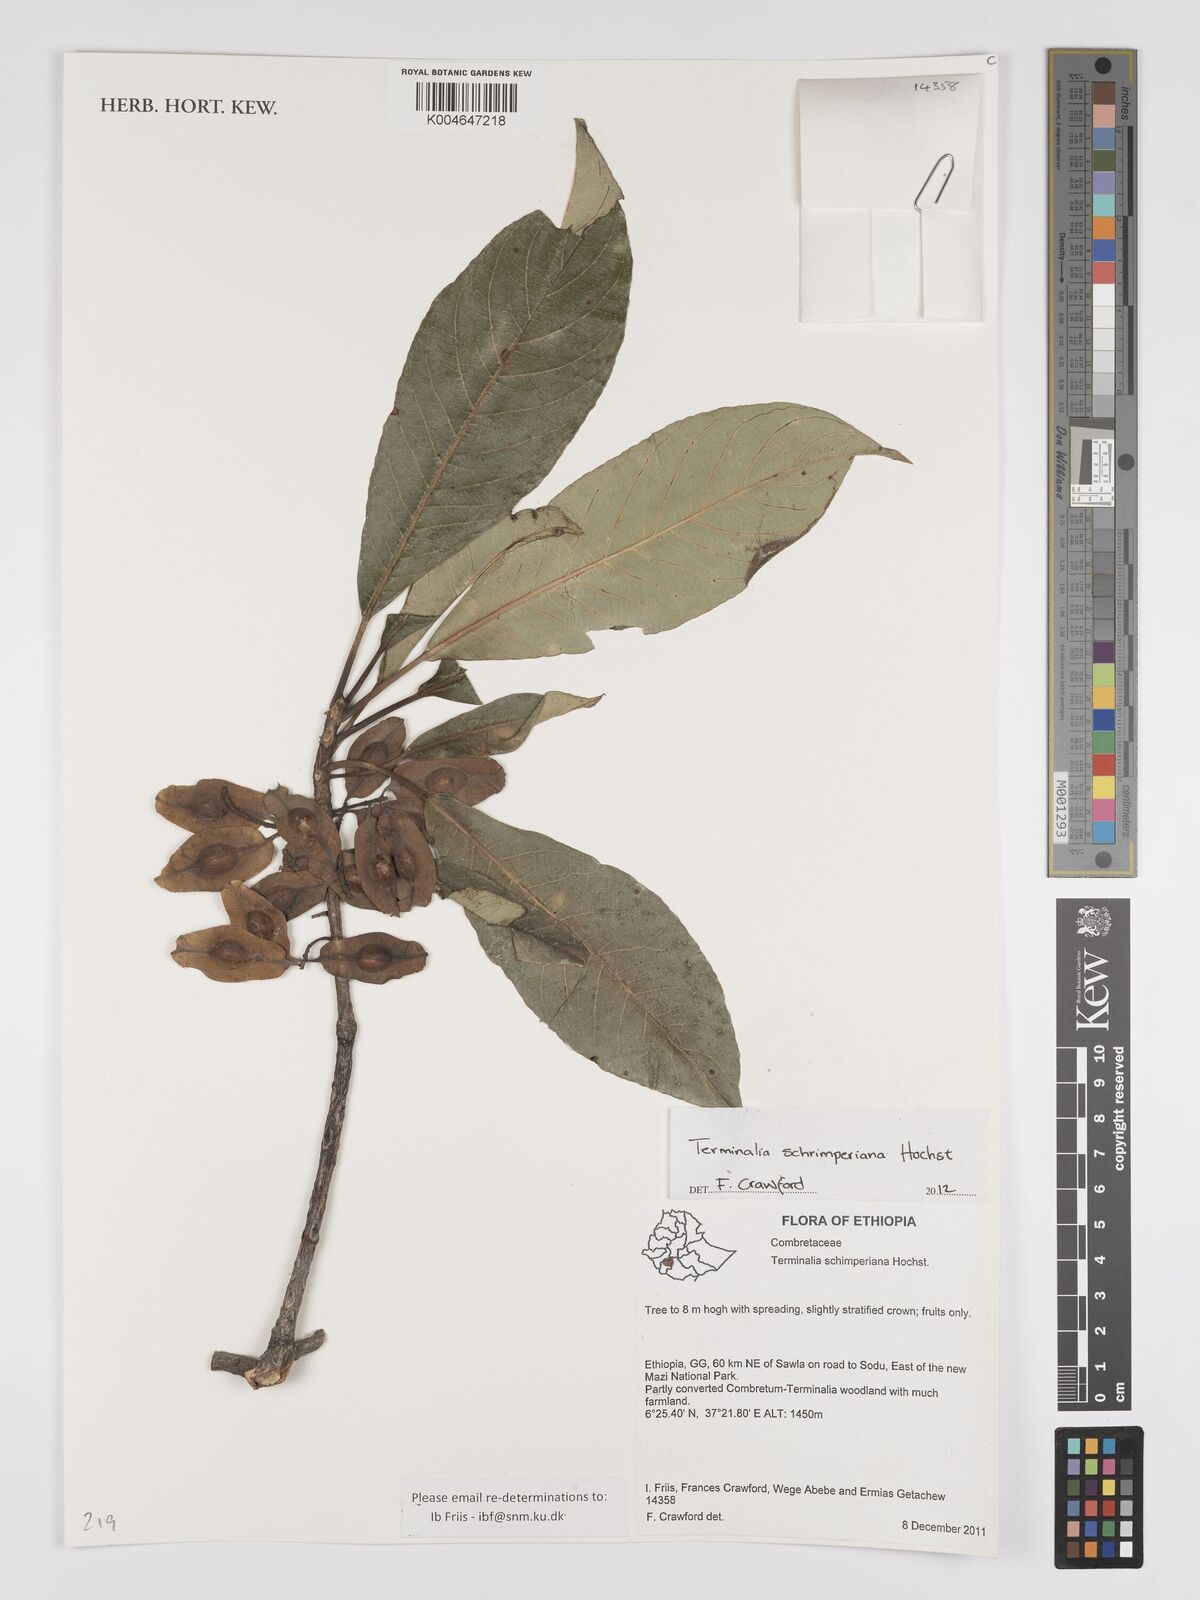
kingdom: Plantae
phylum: Tracheophyta
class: Magnoliopsida
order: Myrtales
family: Combretaceae
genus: Terminalia
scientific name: Terminalia schimperiana
